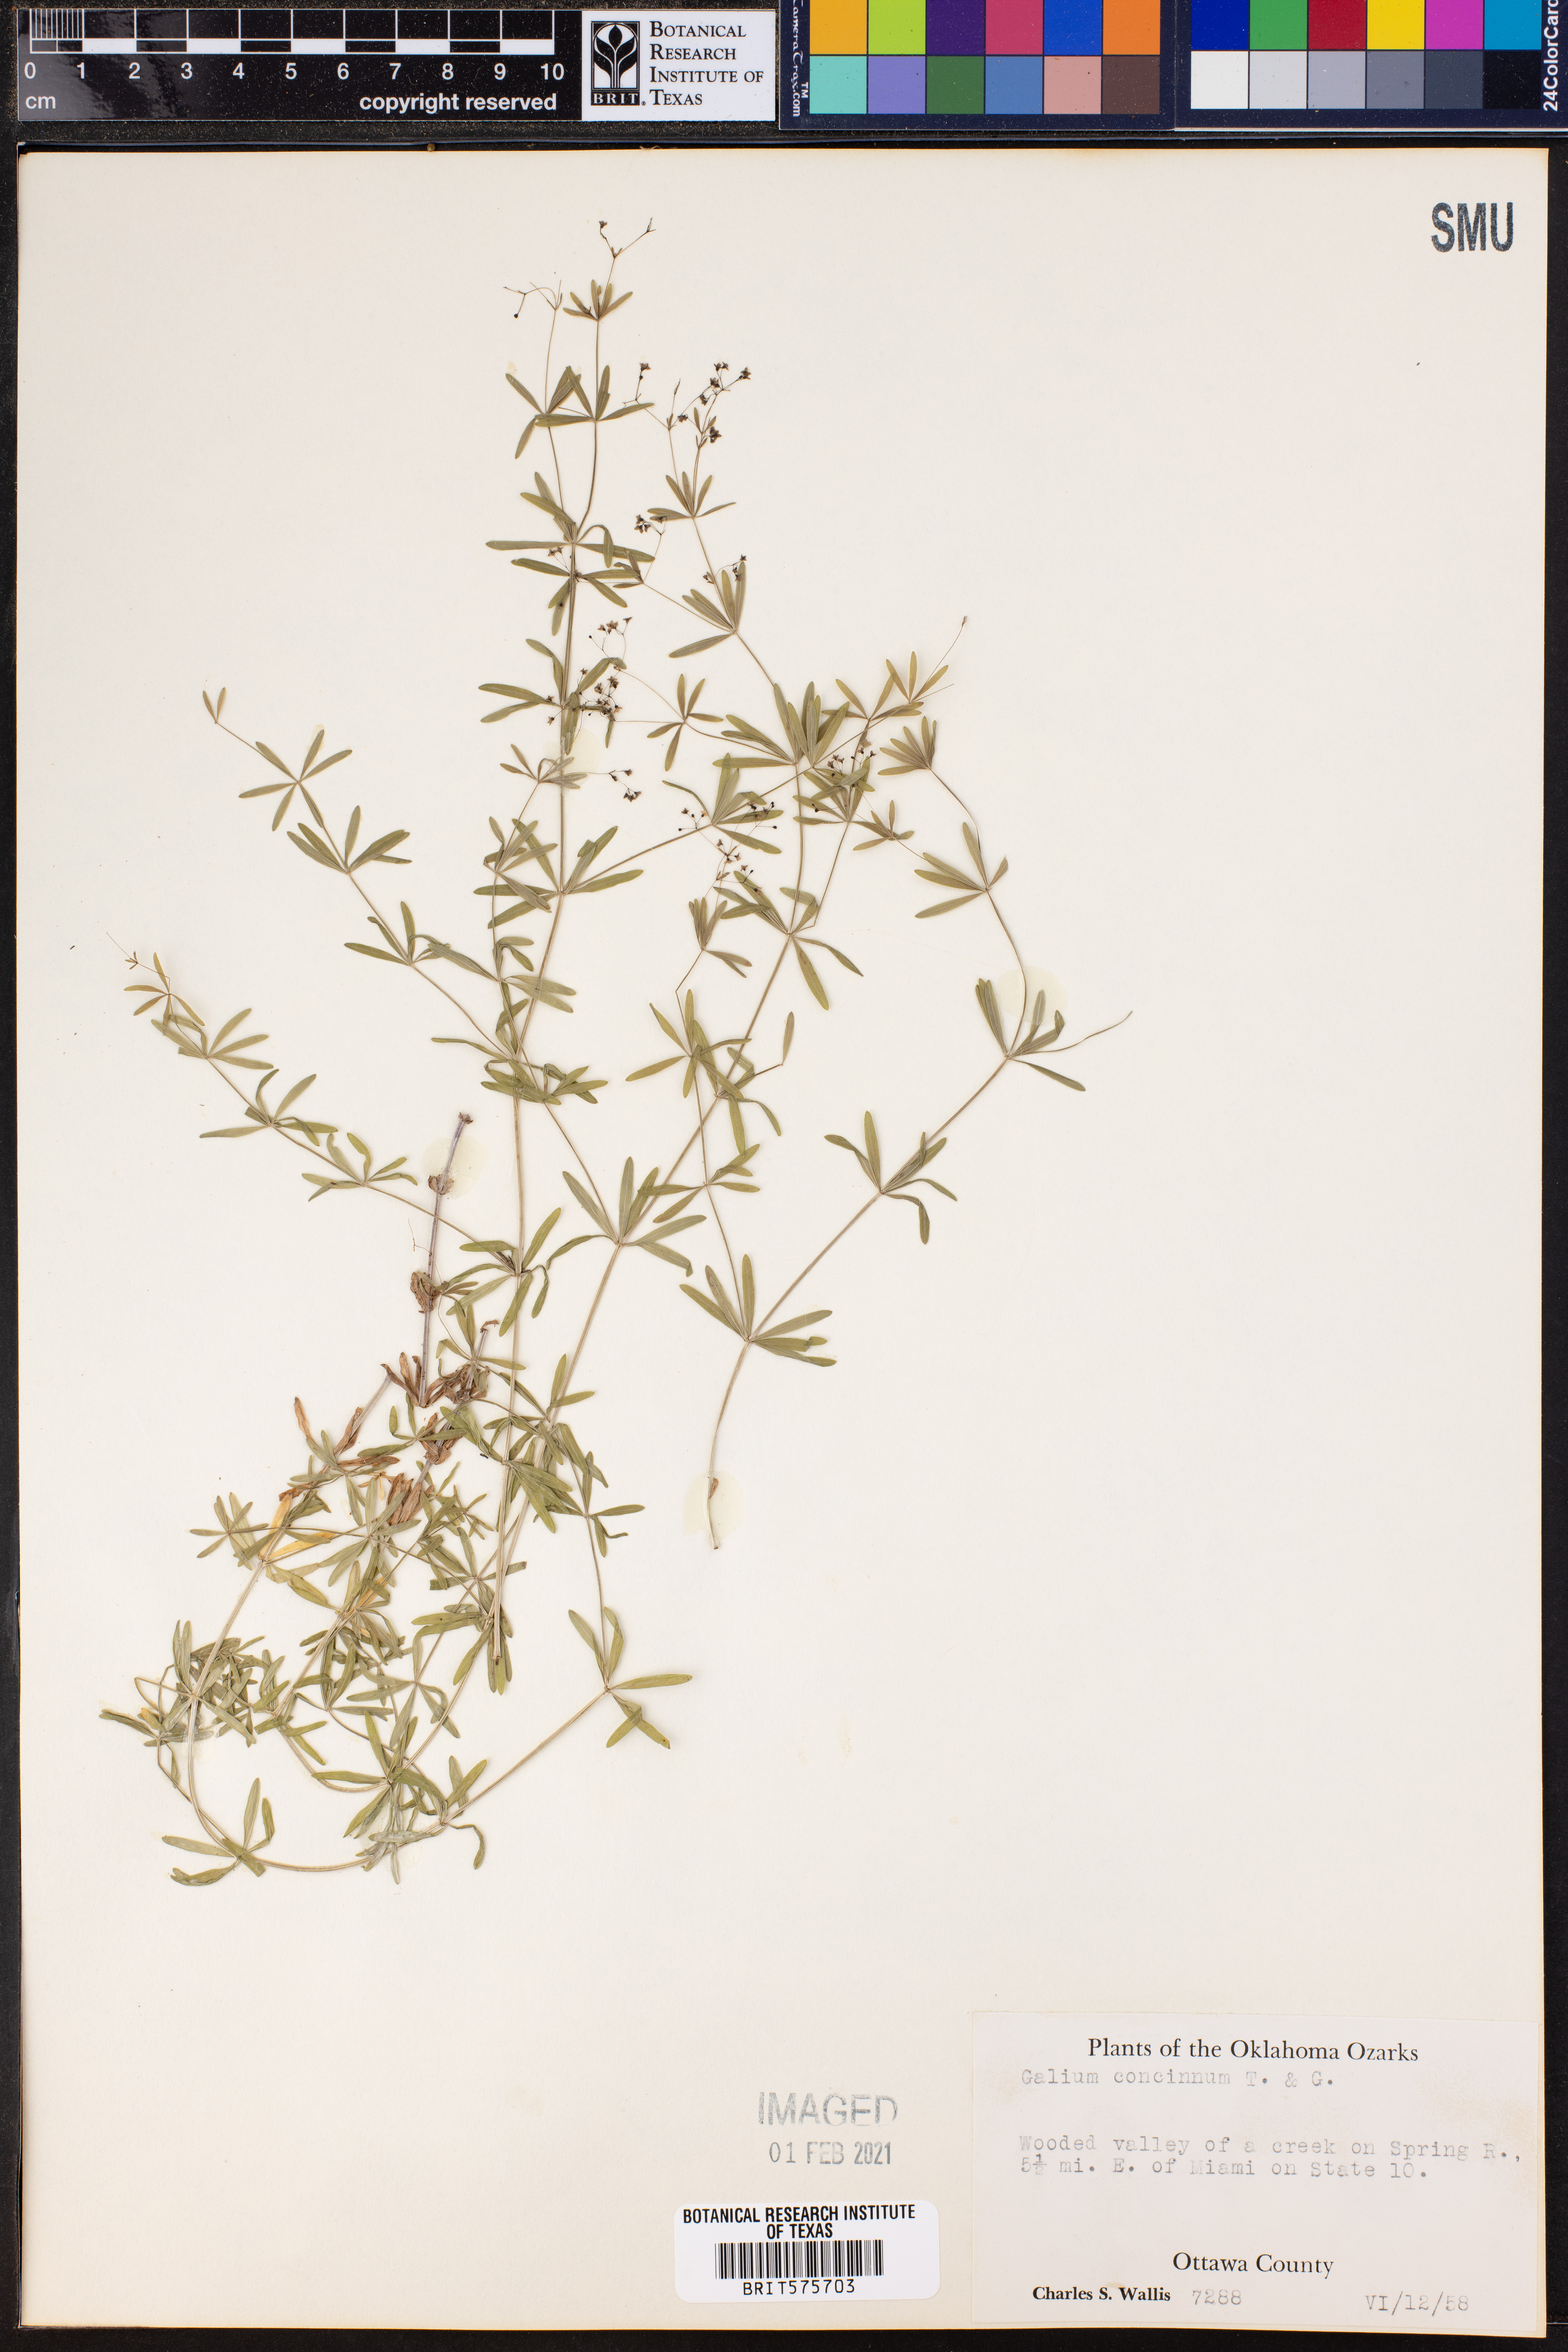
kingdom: Plantae
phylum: Tracheophyta
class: Magnoliopsida
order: Gentianales
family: Rubiaceae
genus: Galium
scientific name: Galium concinnum
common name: Shining bedstraw
